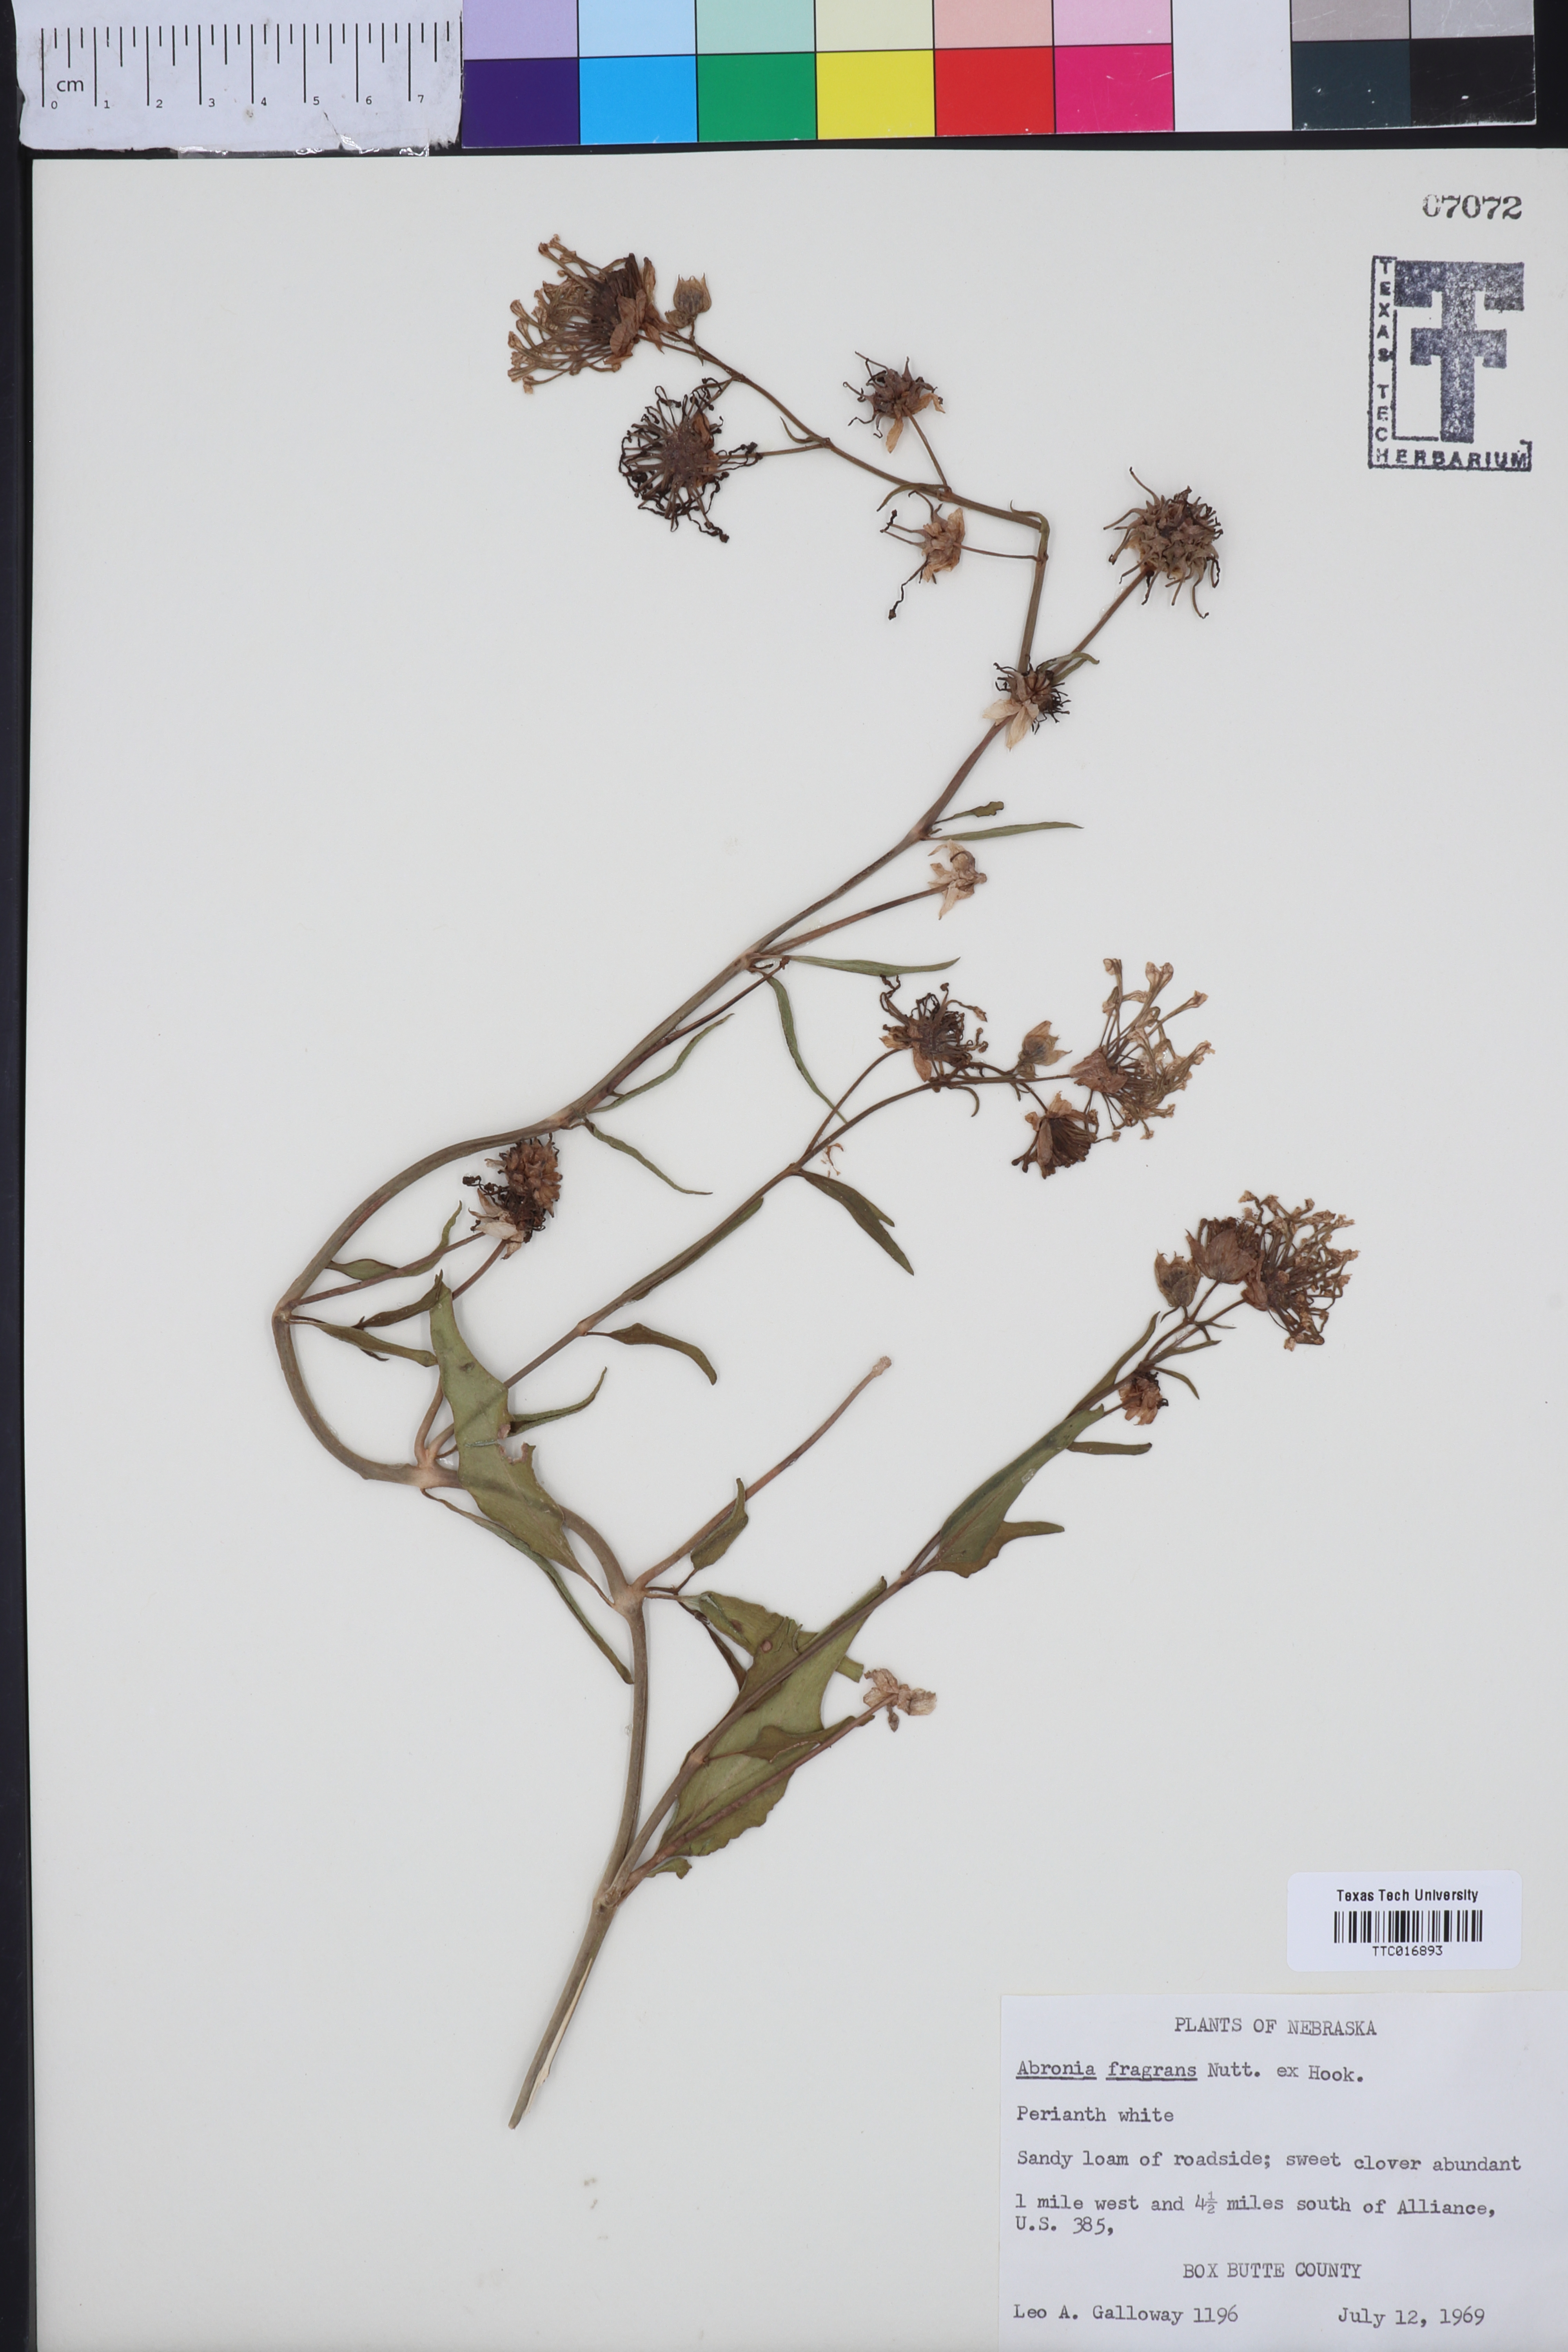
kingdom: Plantae
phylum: Tracheophyta
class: Magnoliopsida
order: Caryophyllales
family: Nyctaginaceae
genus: Abronia
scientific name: Abronia fragrans
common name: Fragrant sand-verbena
